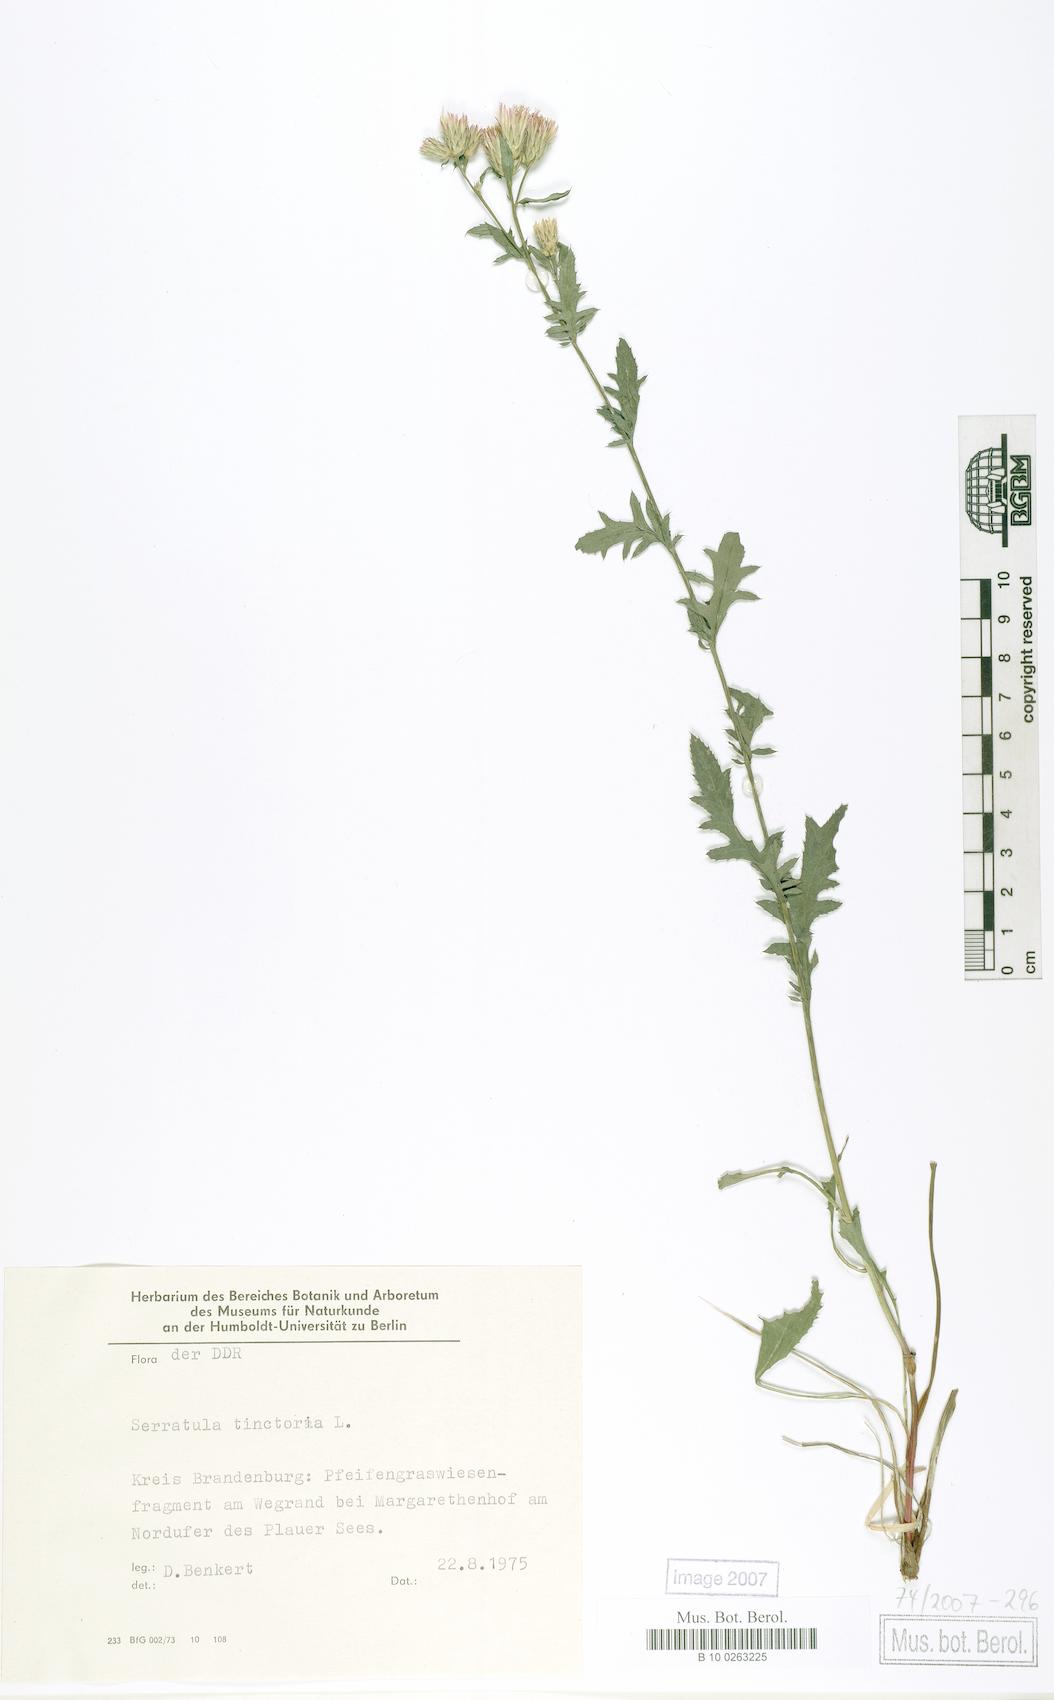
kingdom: Plantae
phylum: Tracheophyta
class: Magnoliopsida
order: Asterales
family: Asteraceae
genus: Serratula
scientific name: Serratula tinctoria
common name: Saw-wort
